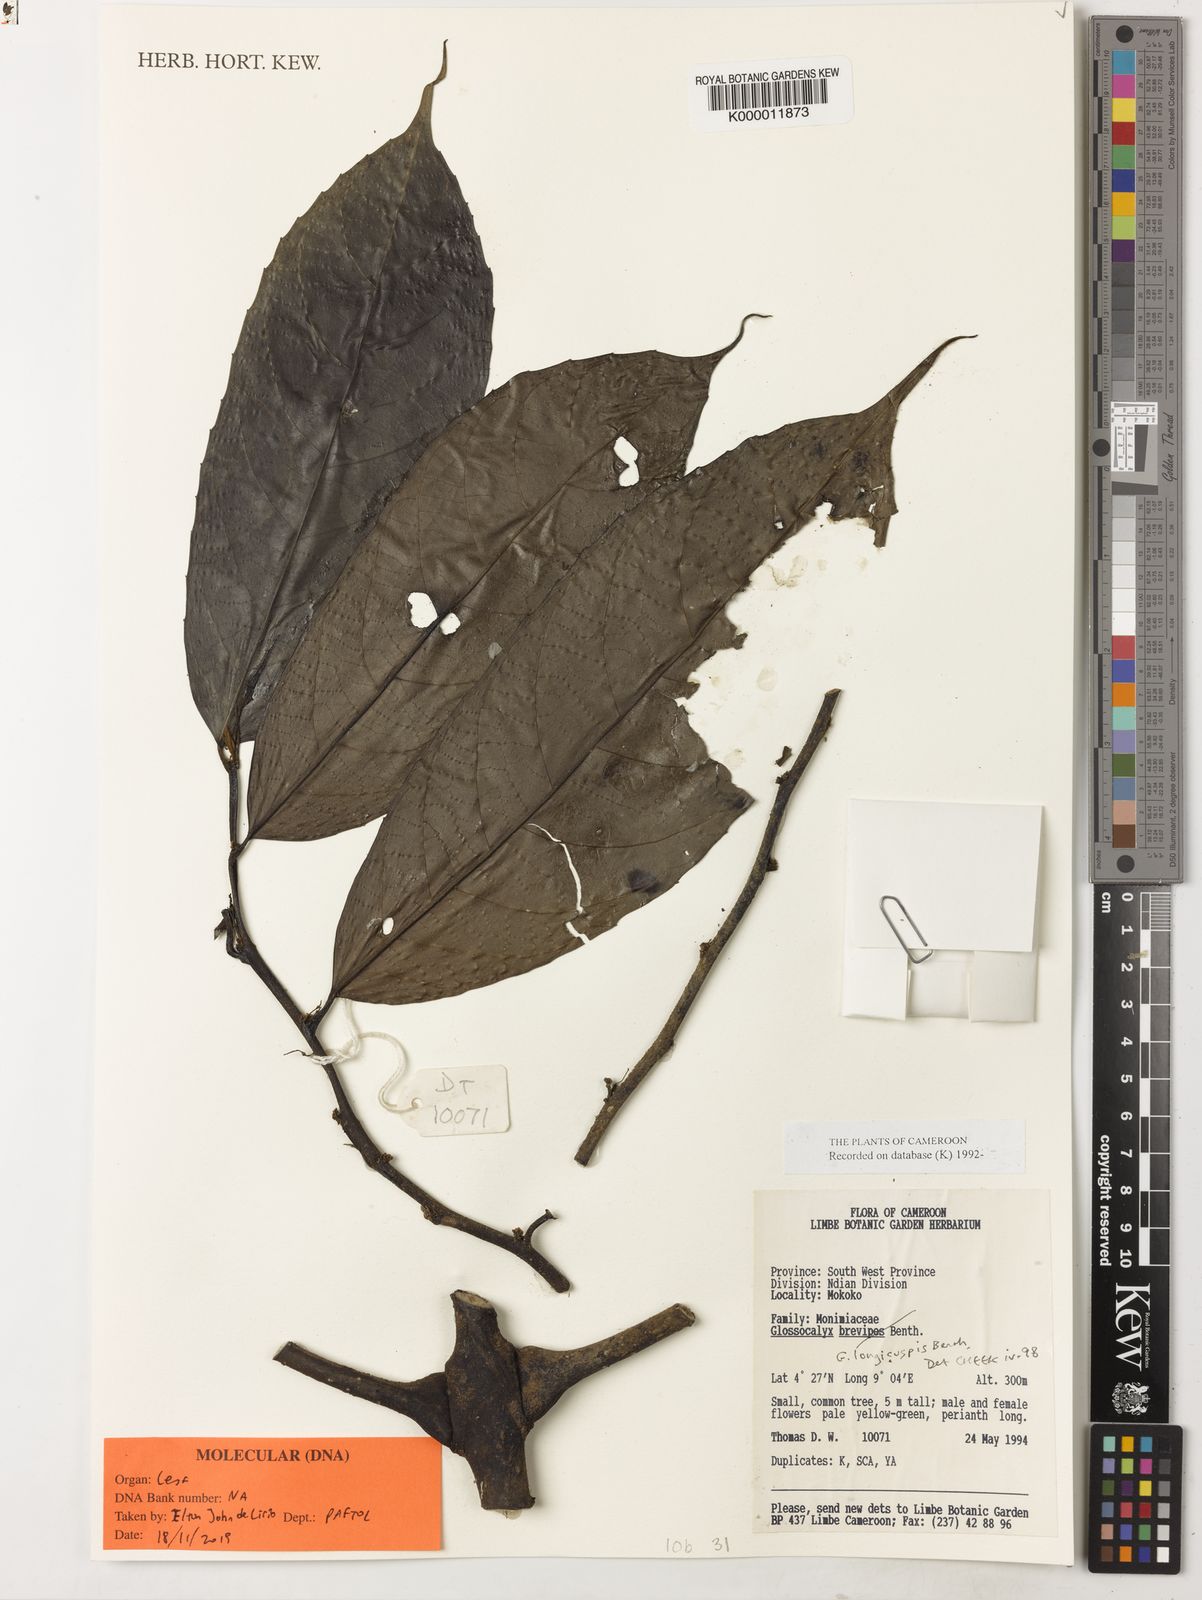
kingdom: Plantae
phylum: Tracheophyta
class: Magnoliopsida
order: Laurales
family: Siparunaceae
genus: Glossocalyx
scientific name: Glossocalyx longicuspis
